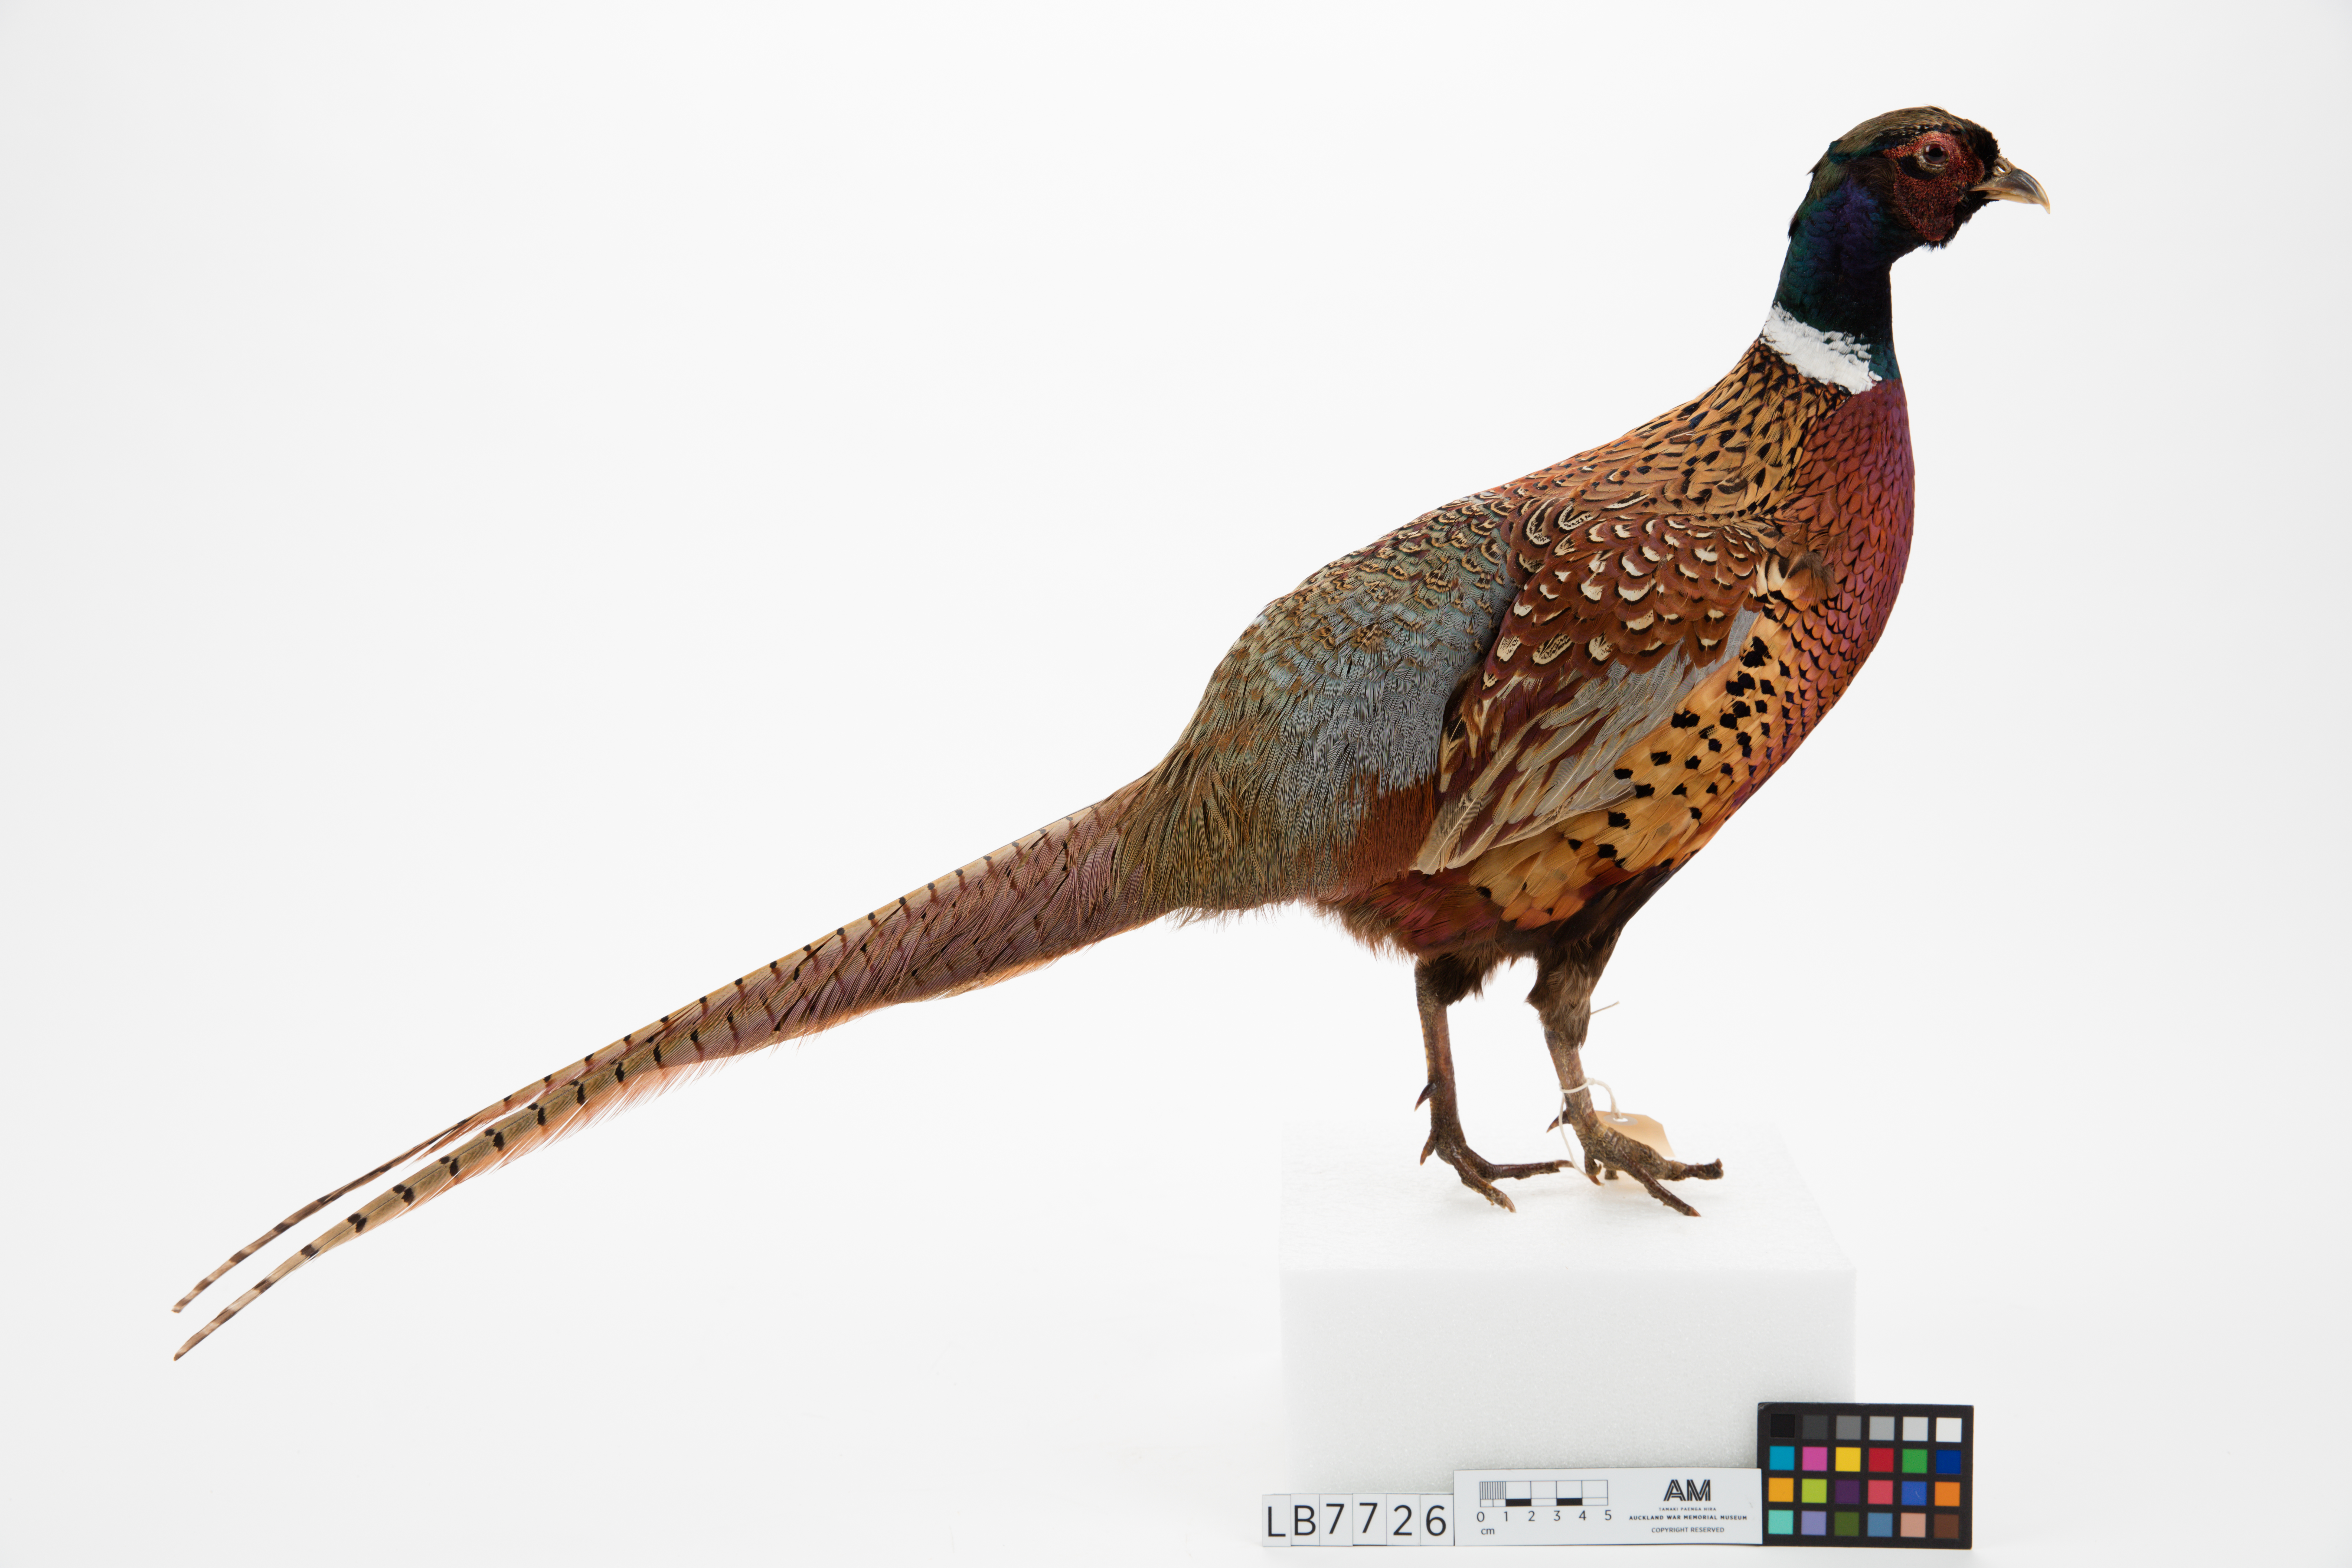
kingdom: Animalia
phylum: Chordata
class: Aves
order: Galliformes
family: Phasianidae
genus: Phasianus
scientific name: Phasianus colchicus
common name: Common pheasant
